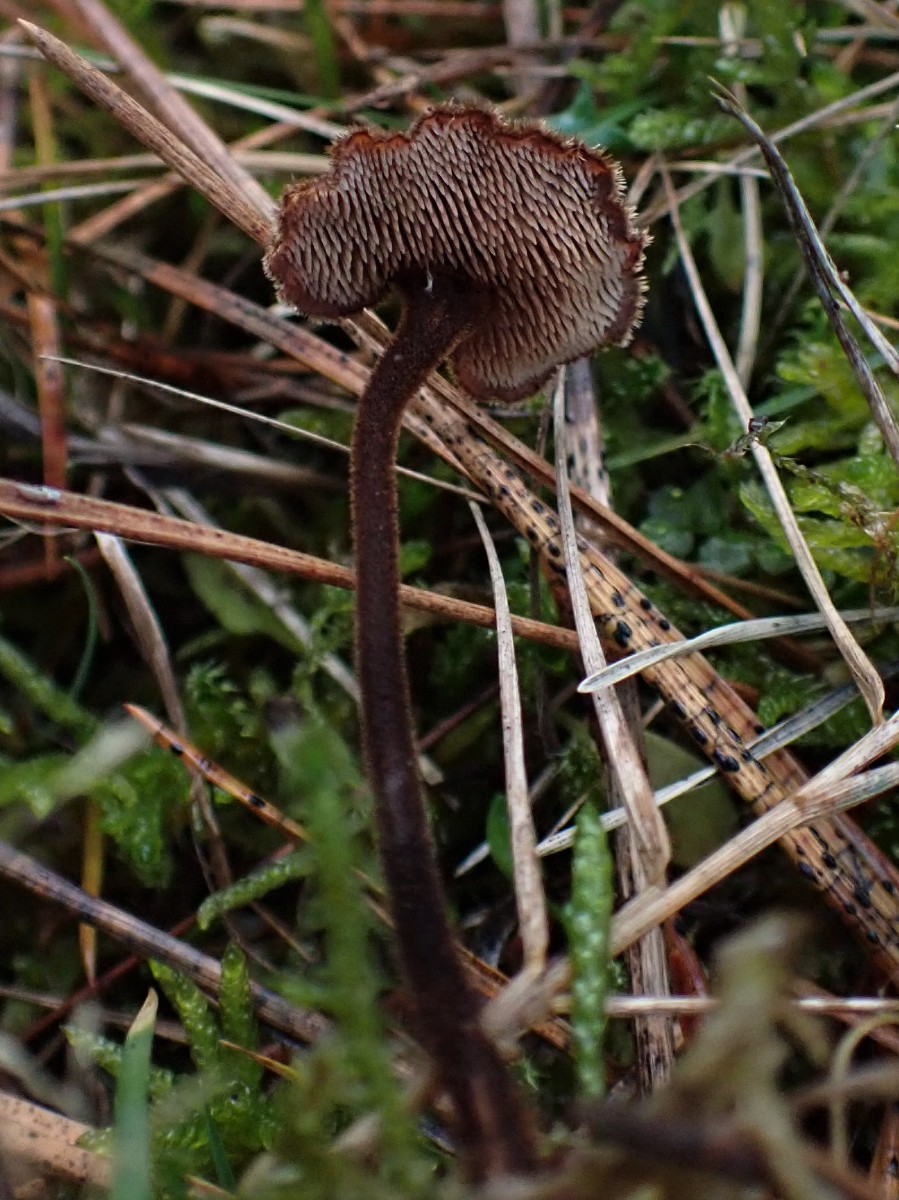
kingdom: Fungi
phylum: Basidiomycota
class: Agaricomycetes
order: Russulales
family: Auriscalpiaceae
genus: Auriscalpium
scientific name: Auriscalpium vulgare
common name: koglepigsvamp
